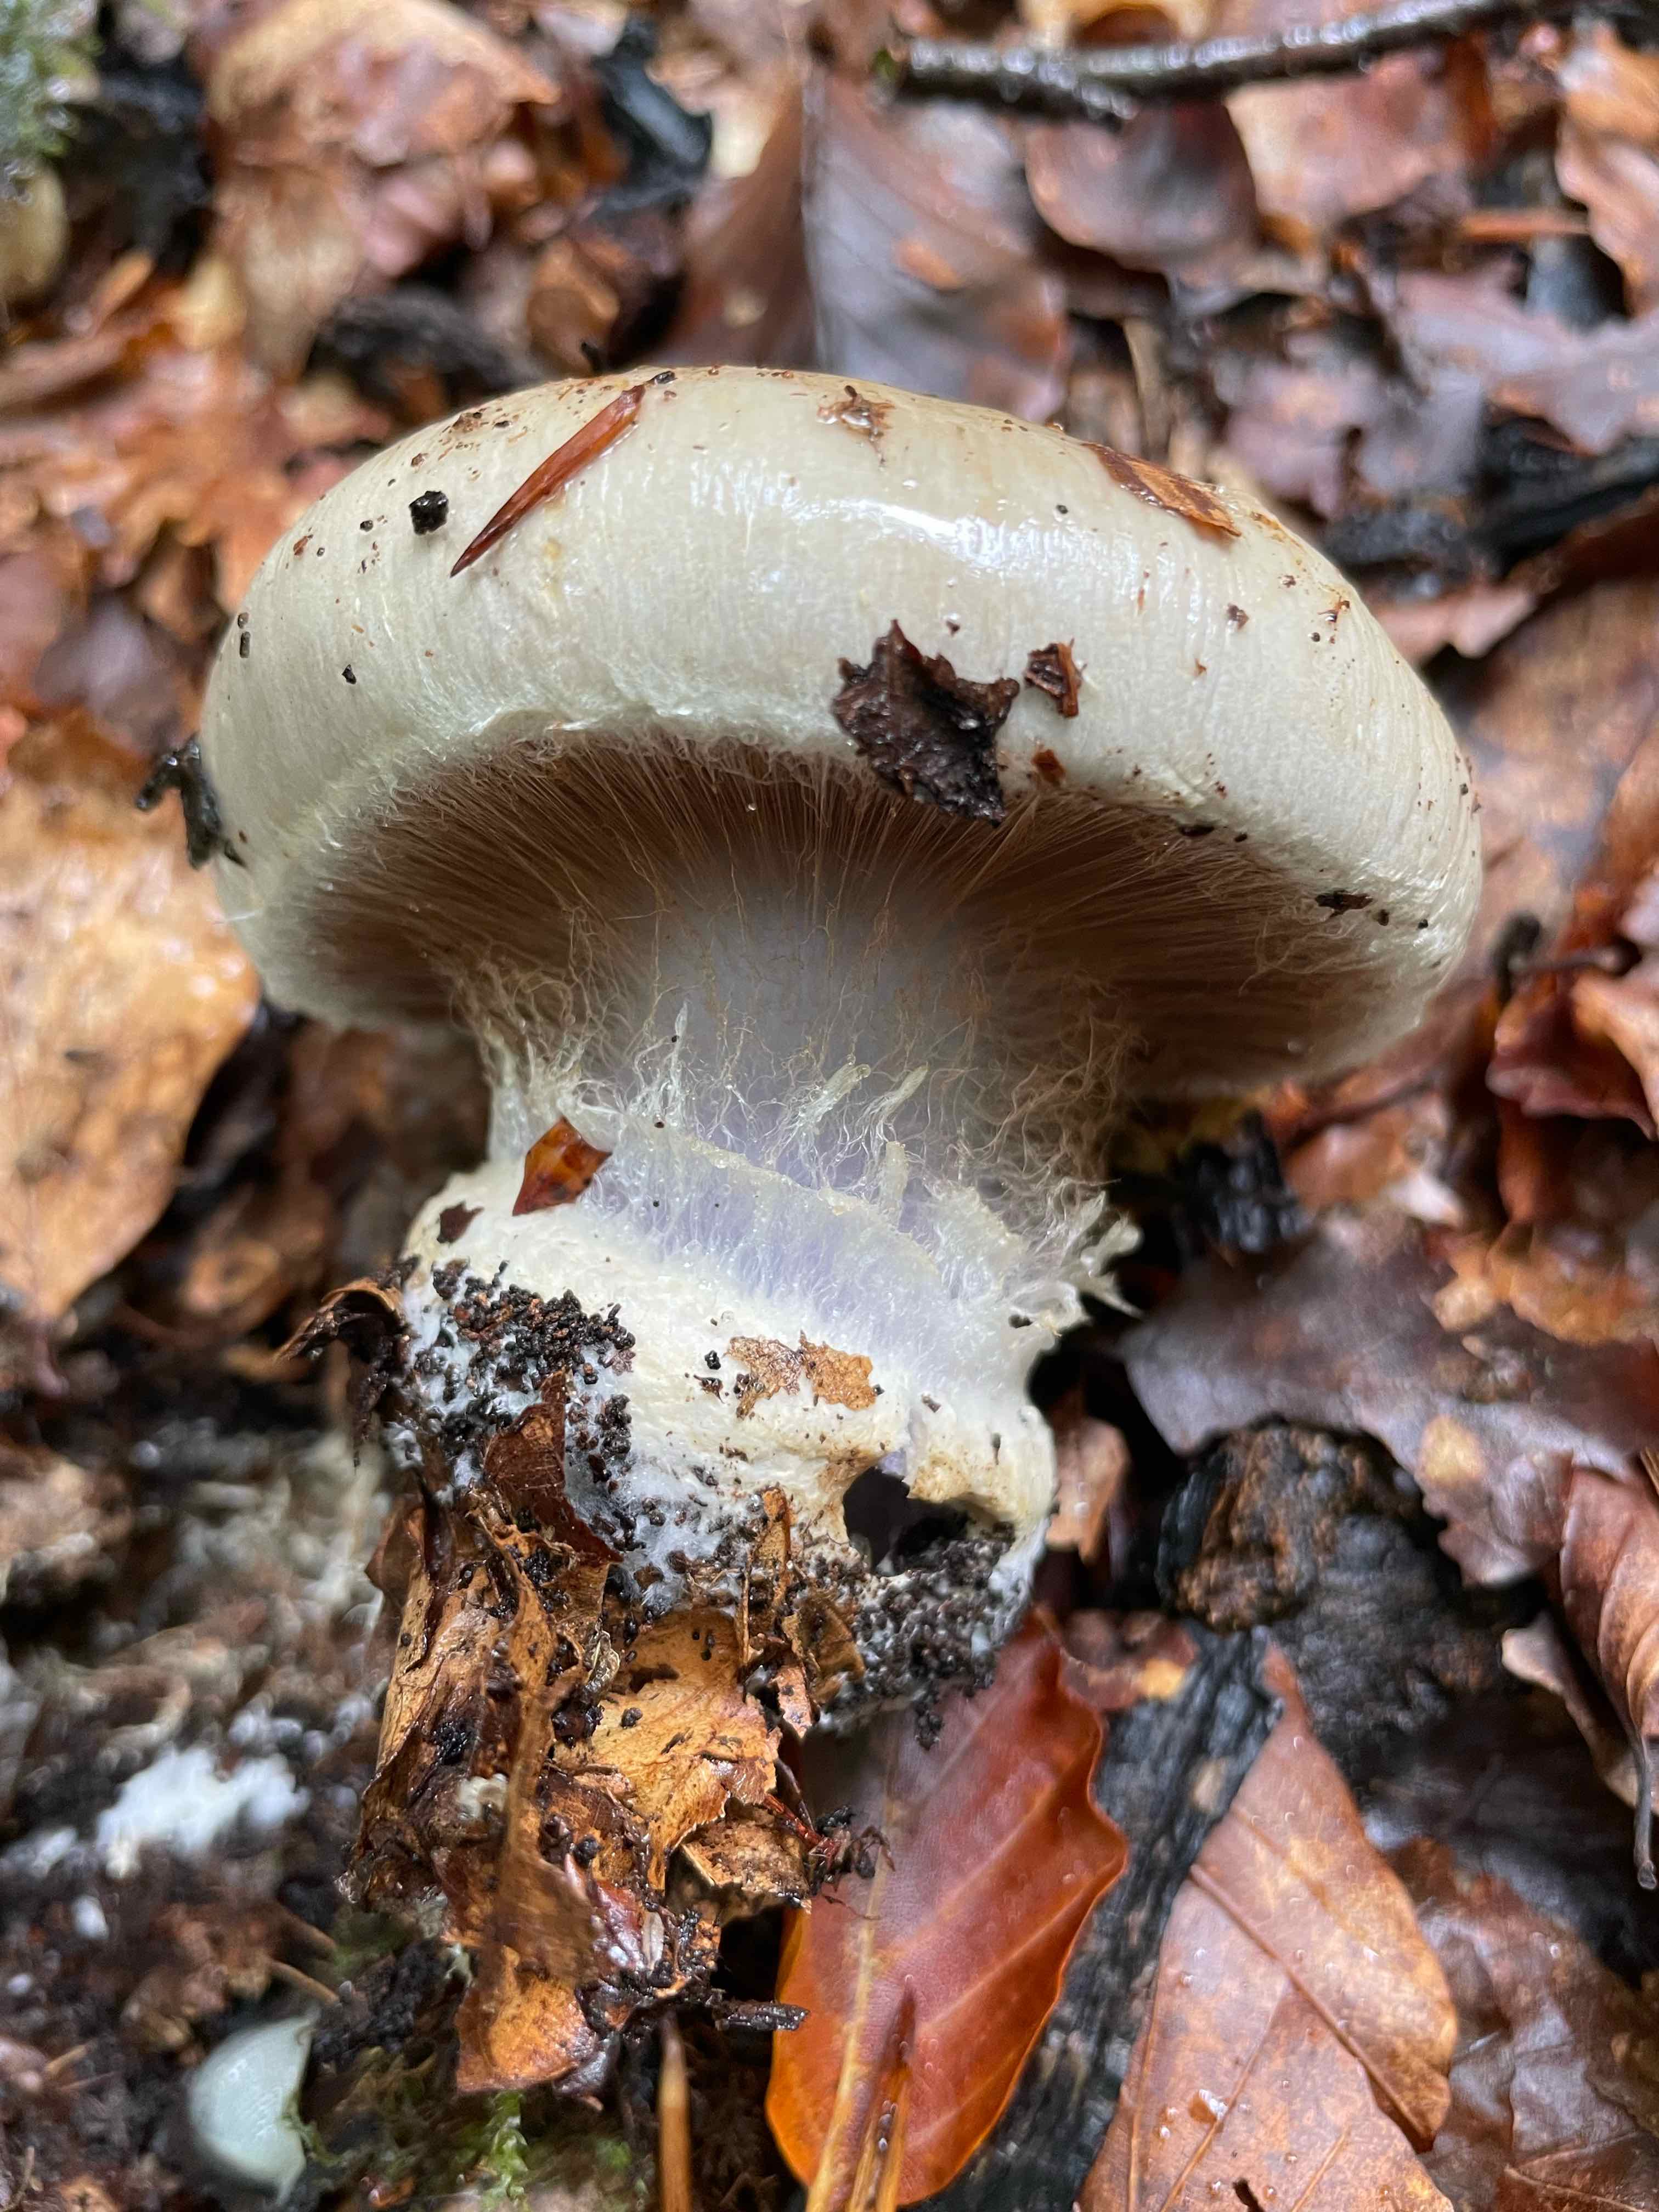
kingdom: Fungi
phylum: Basidiomycota
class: Agaricomycetes
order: Agaricales
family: Cortinariaceae
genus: Cortinarius
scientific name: Cortinarius anserinus
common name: bøge-slørhat
